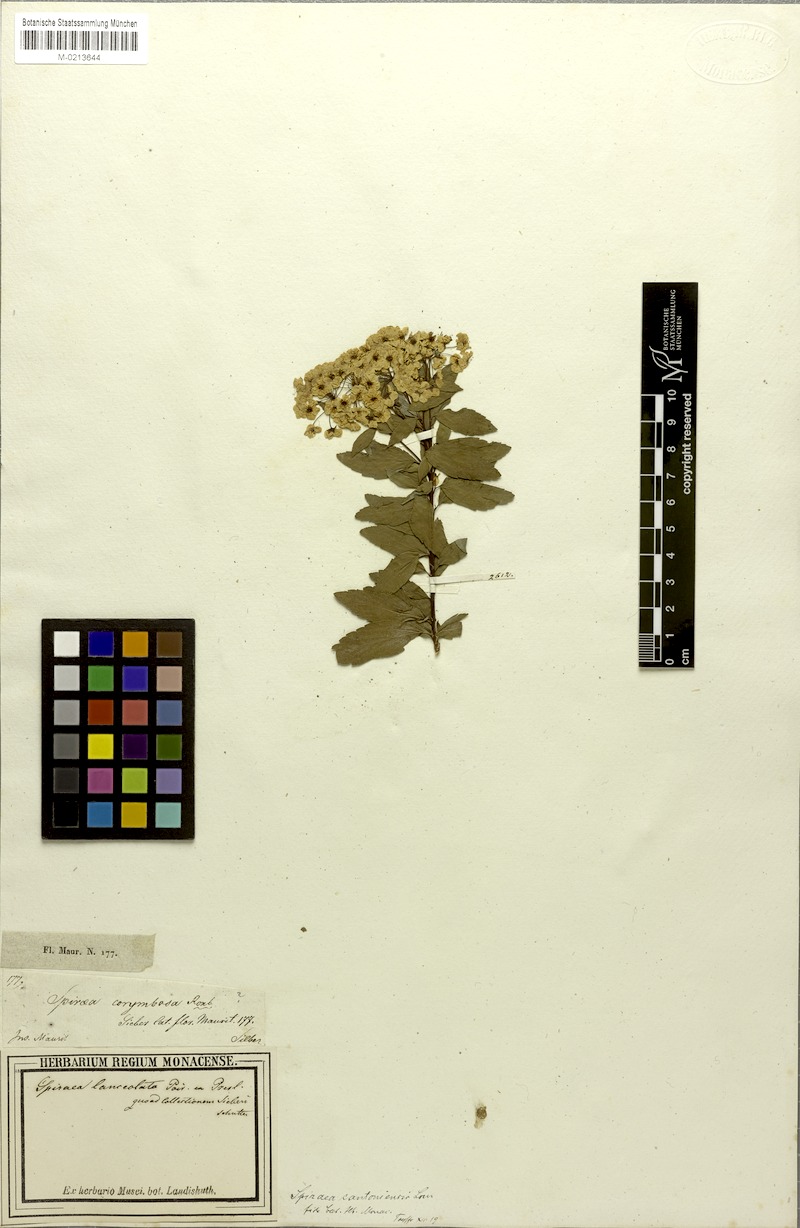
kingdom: Plantae
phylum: Tracheophyta
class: Magnoliopsida
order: Rosales
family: Rosaceae
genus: Spiraea
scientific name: Spiraea cantoniensis
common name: Reeves' meadowsweet
